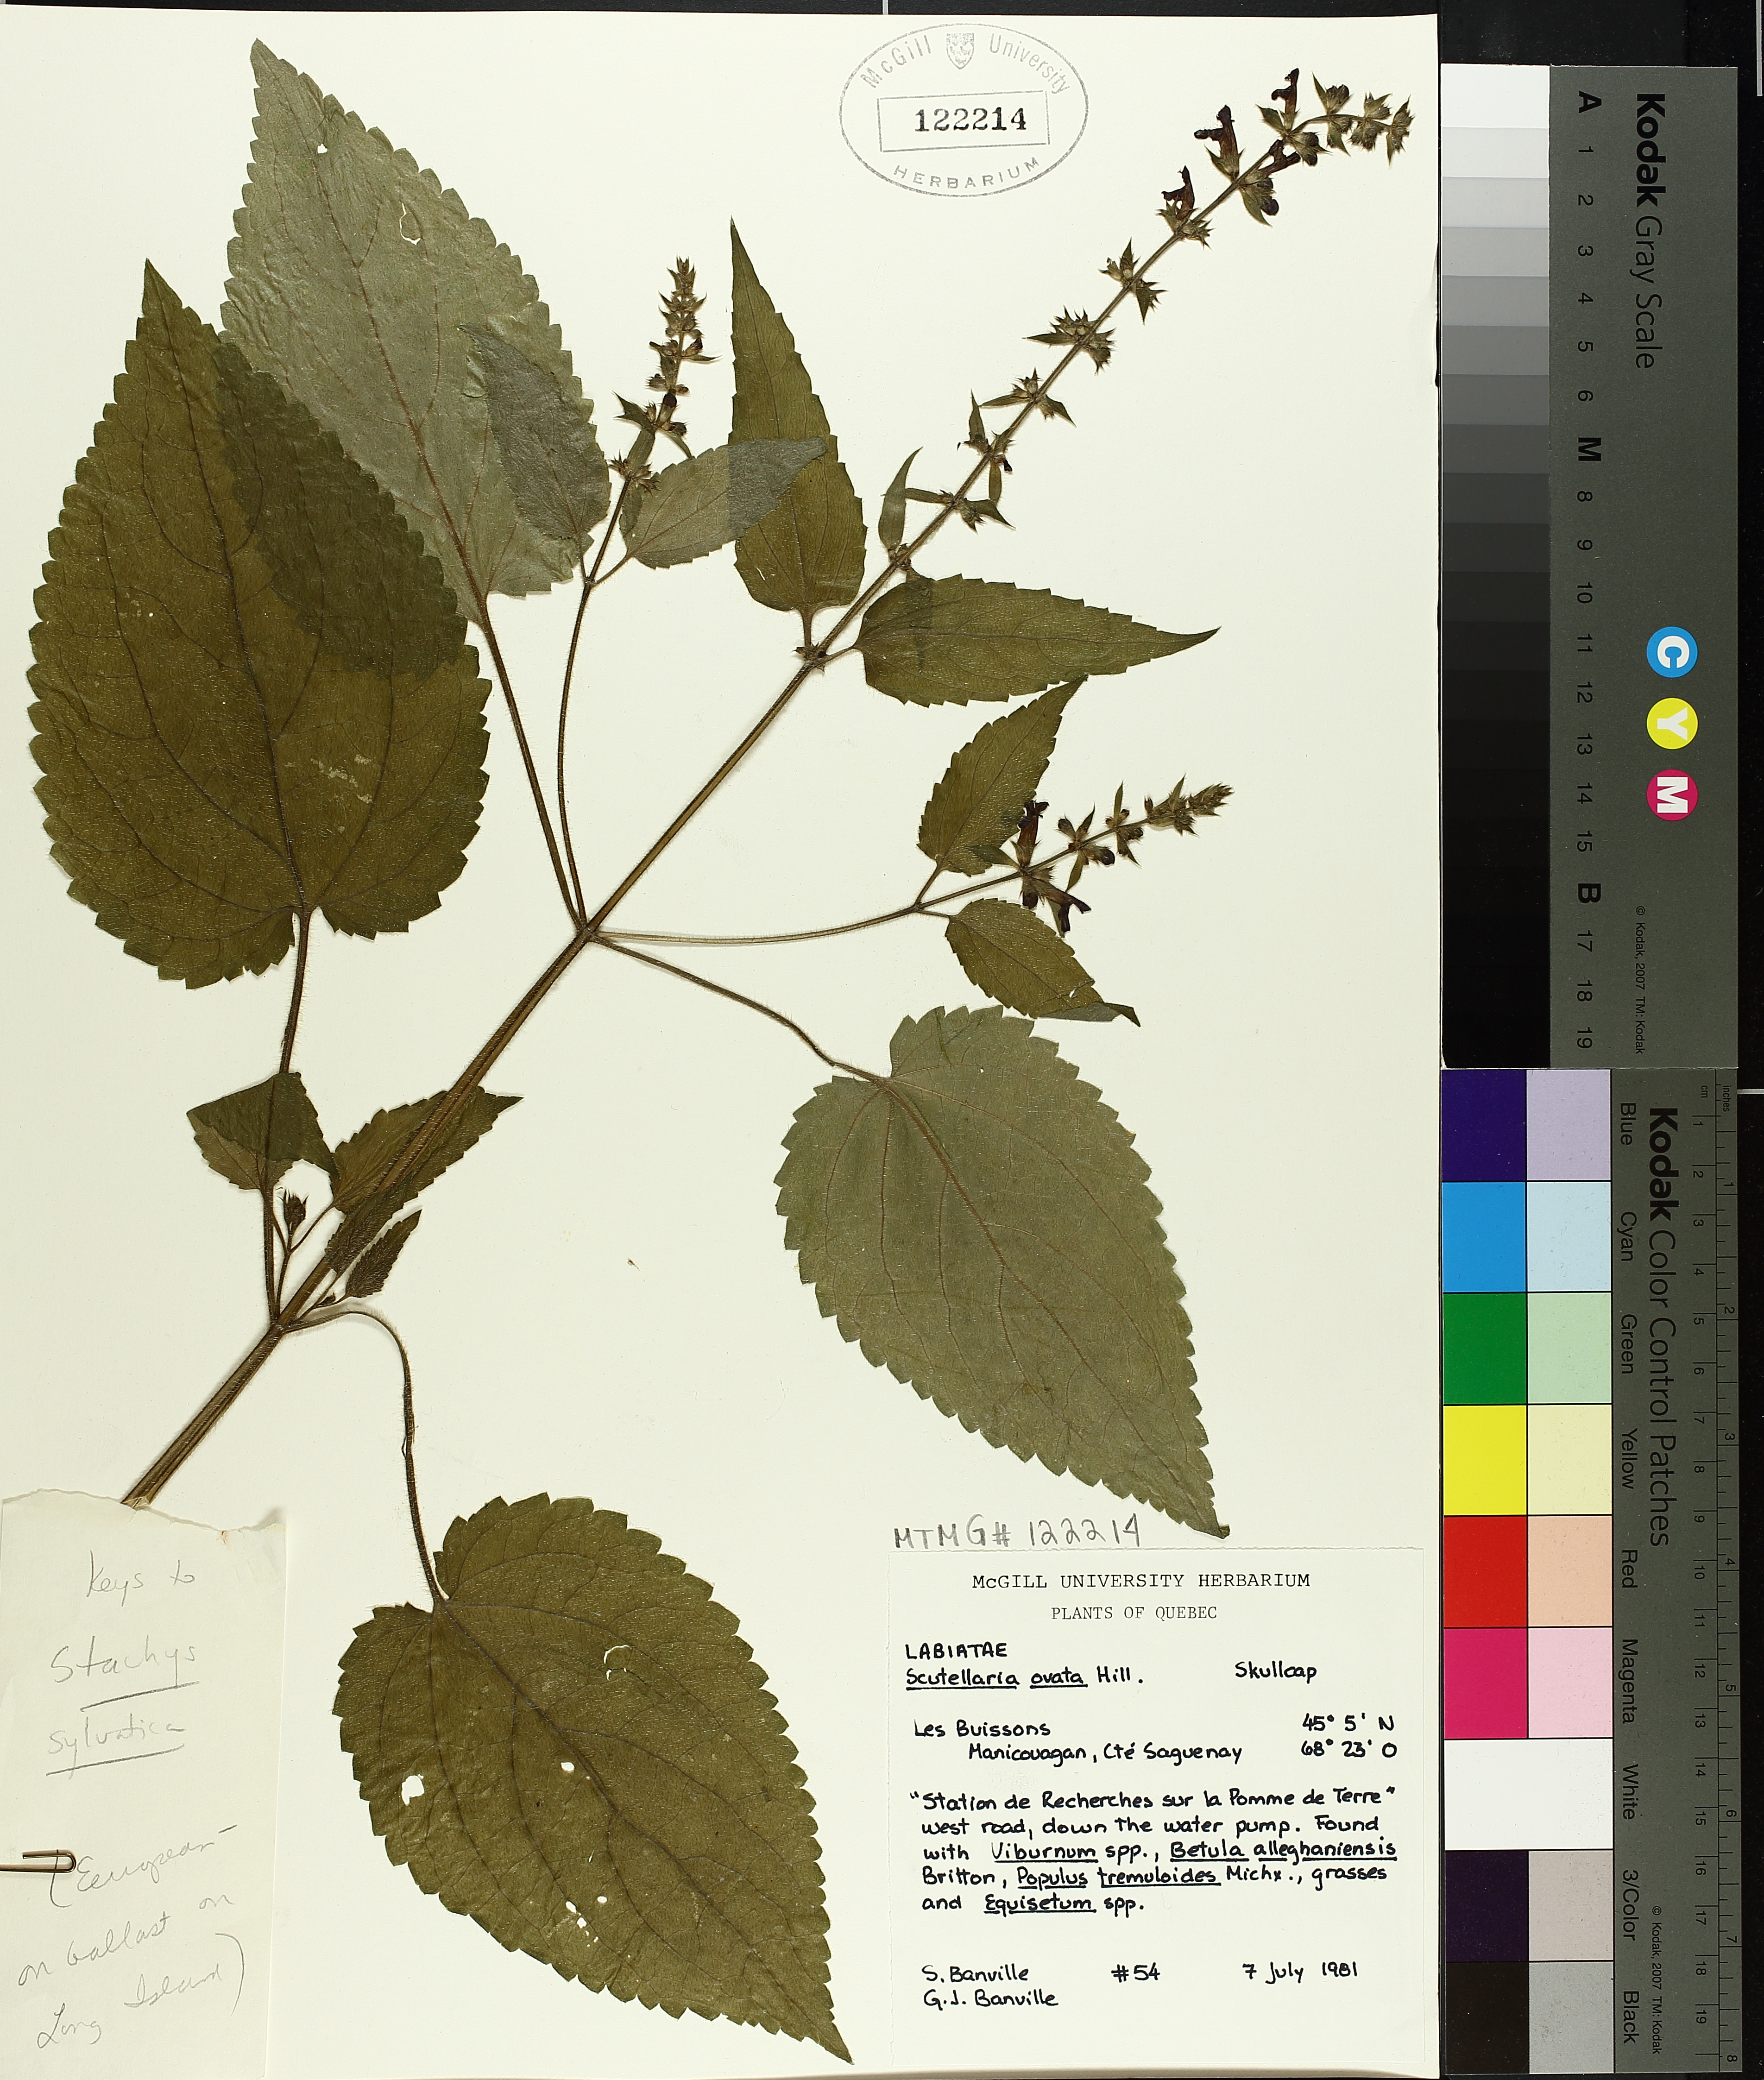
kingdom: Plantae
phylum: Tracheophyta
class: Magnoliopsida
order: Lamiales
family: Lamiaceae
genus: Stachys
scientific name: Stachys sylvatica
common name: Hedge woundwort
